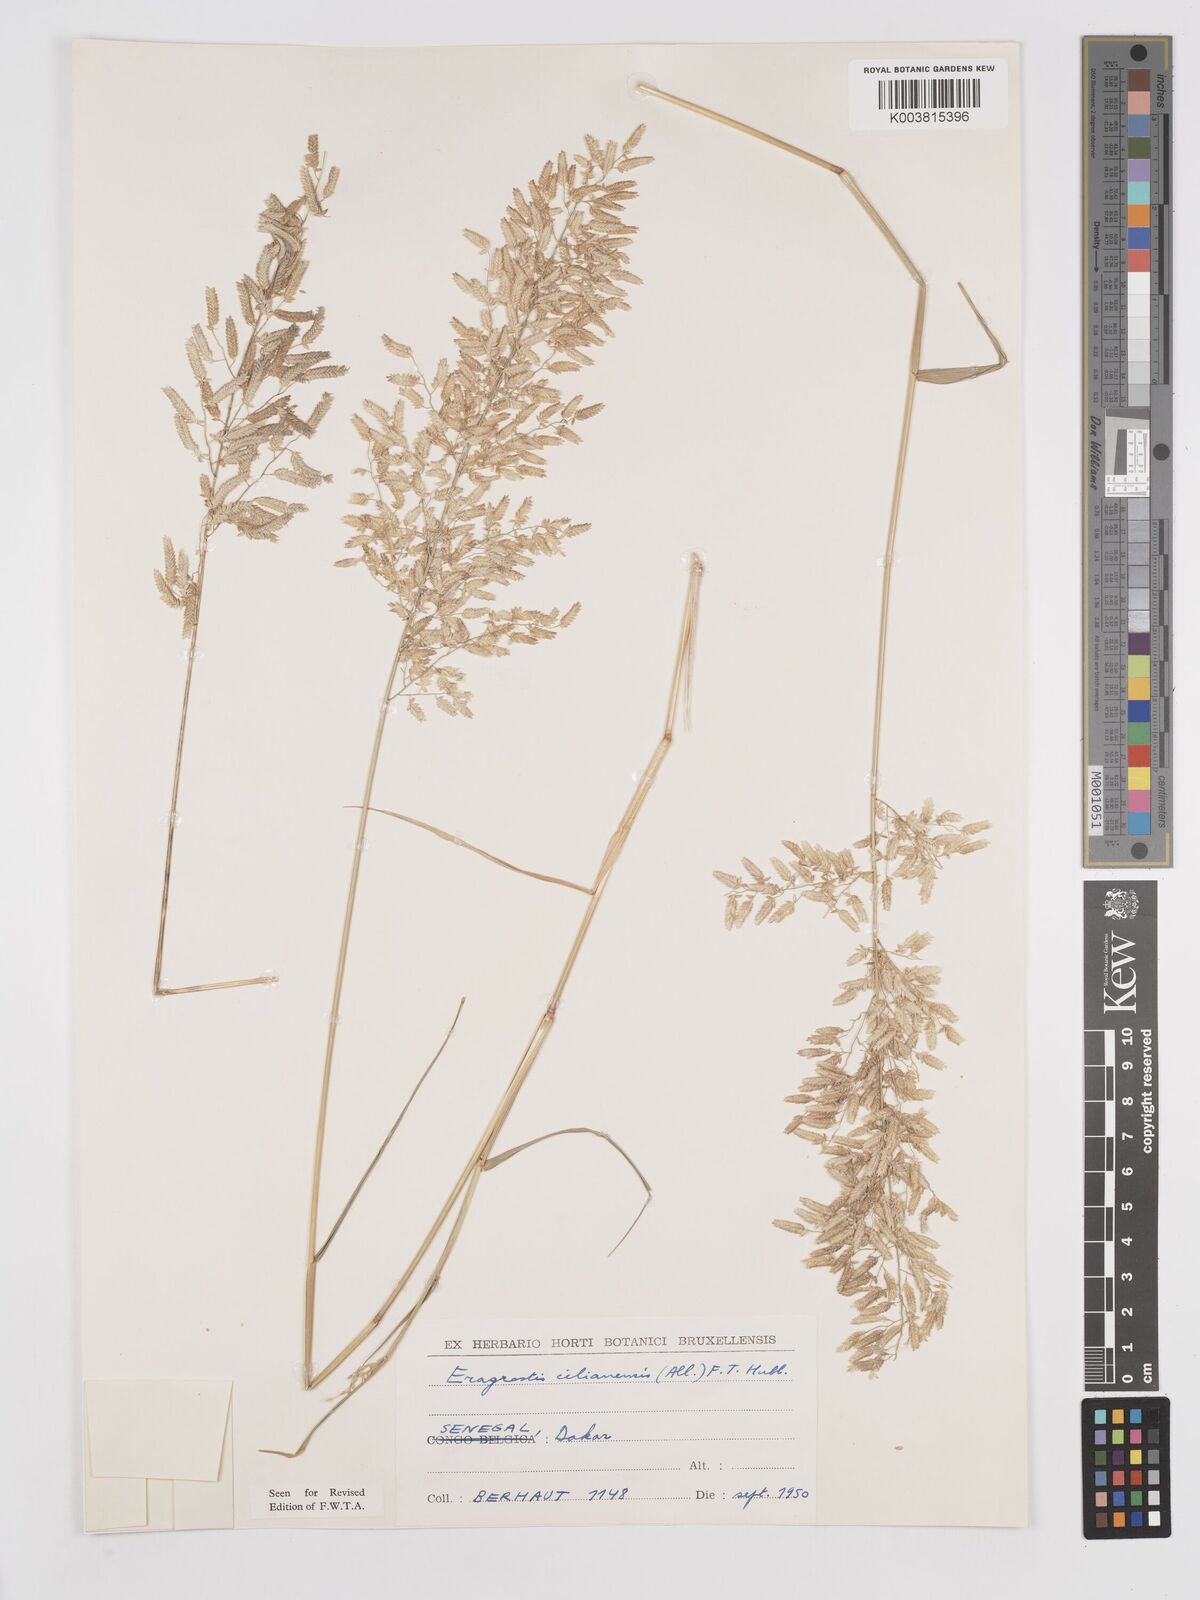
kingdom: Plantae
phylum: Tracheophyta
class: Liliopsida
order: Poales
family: Poaceae
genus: Eragrostis
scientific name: Eragrostis cilianensis
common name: Stinkgrass
